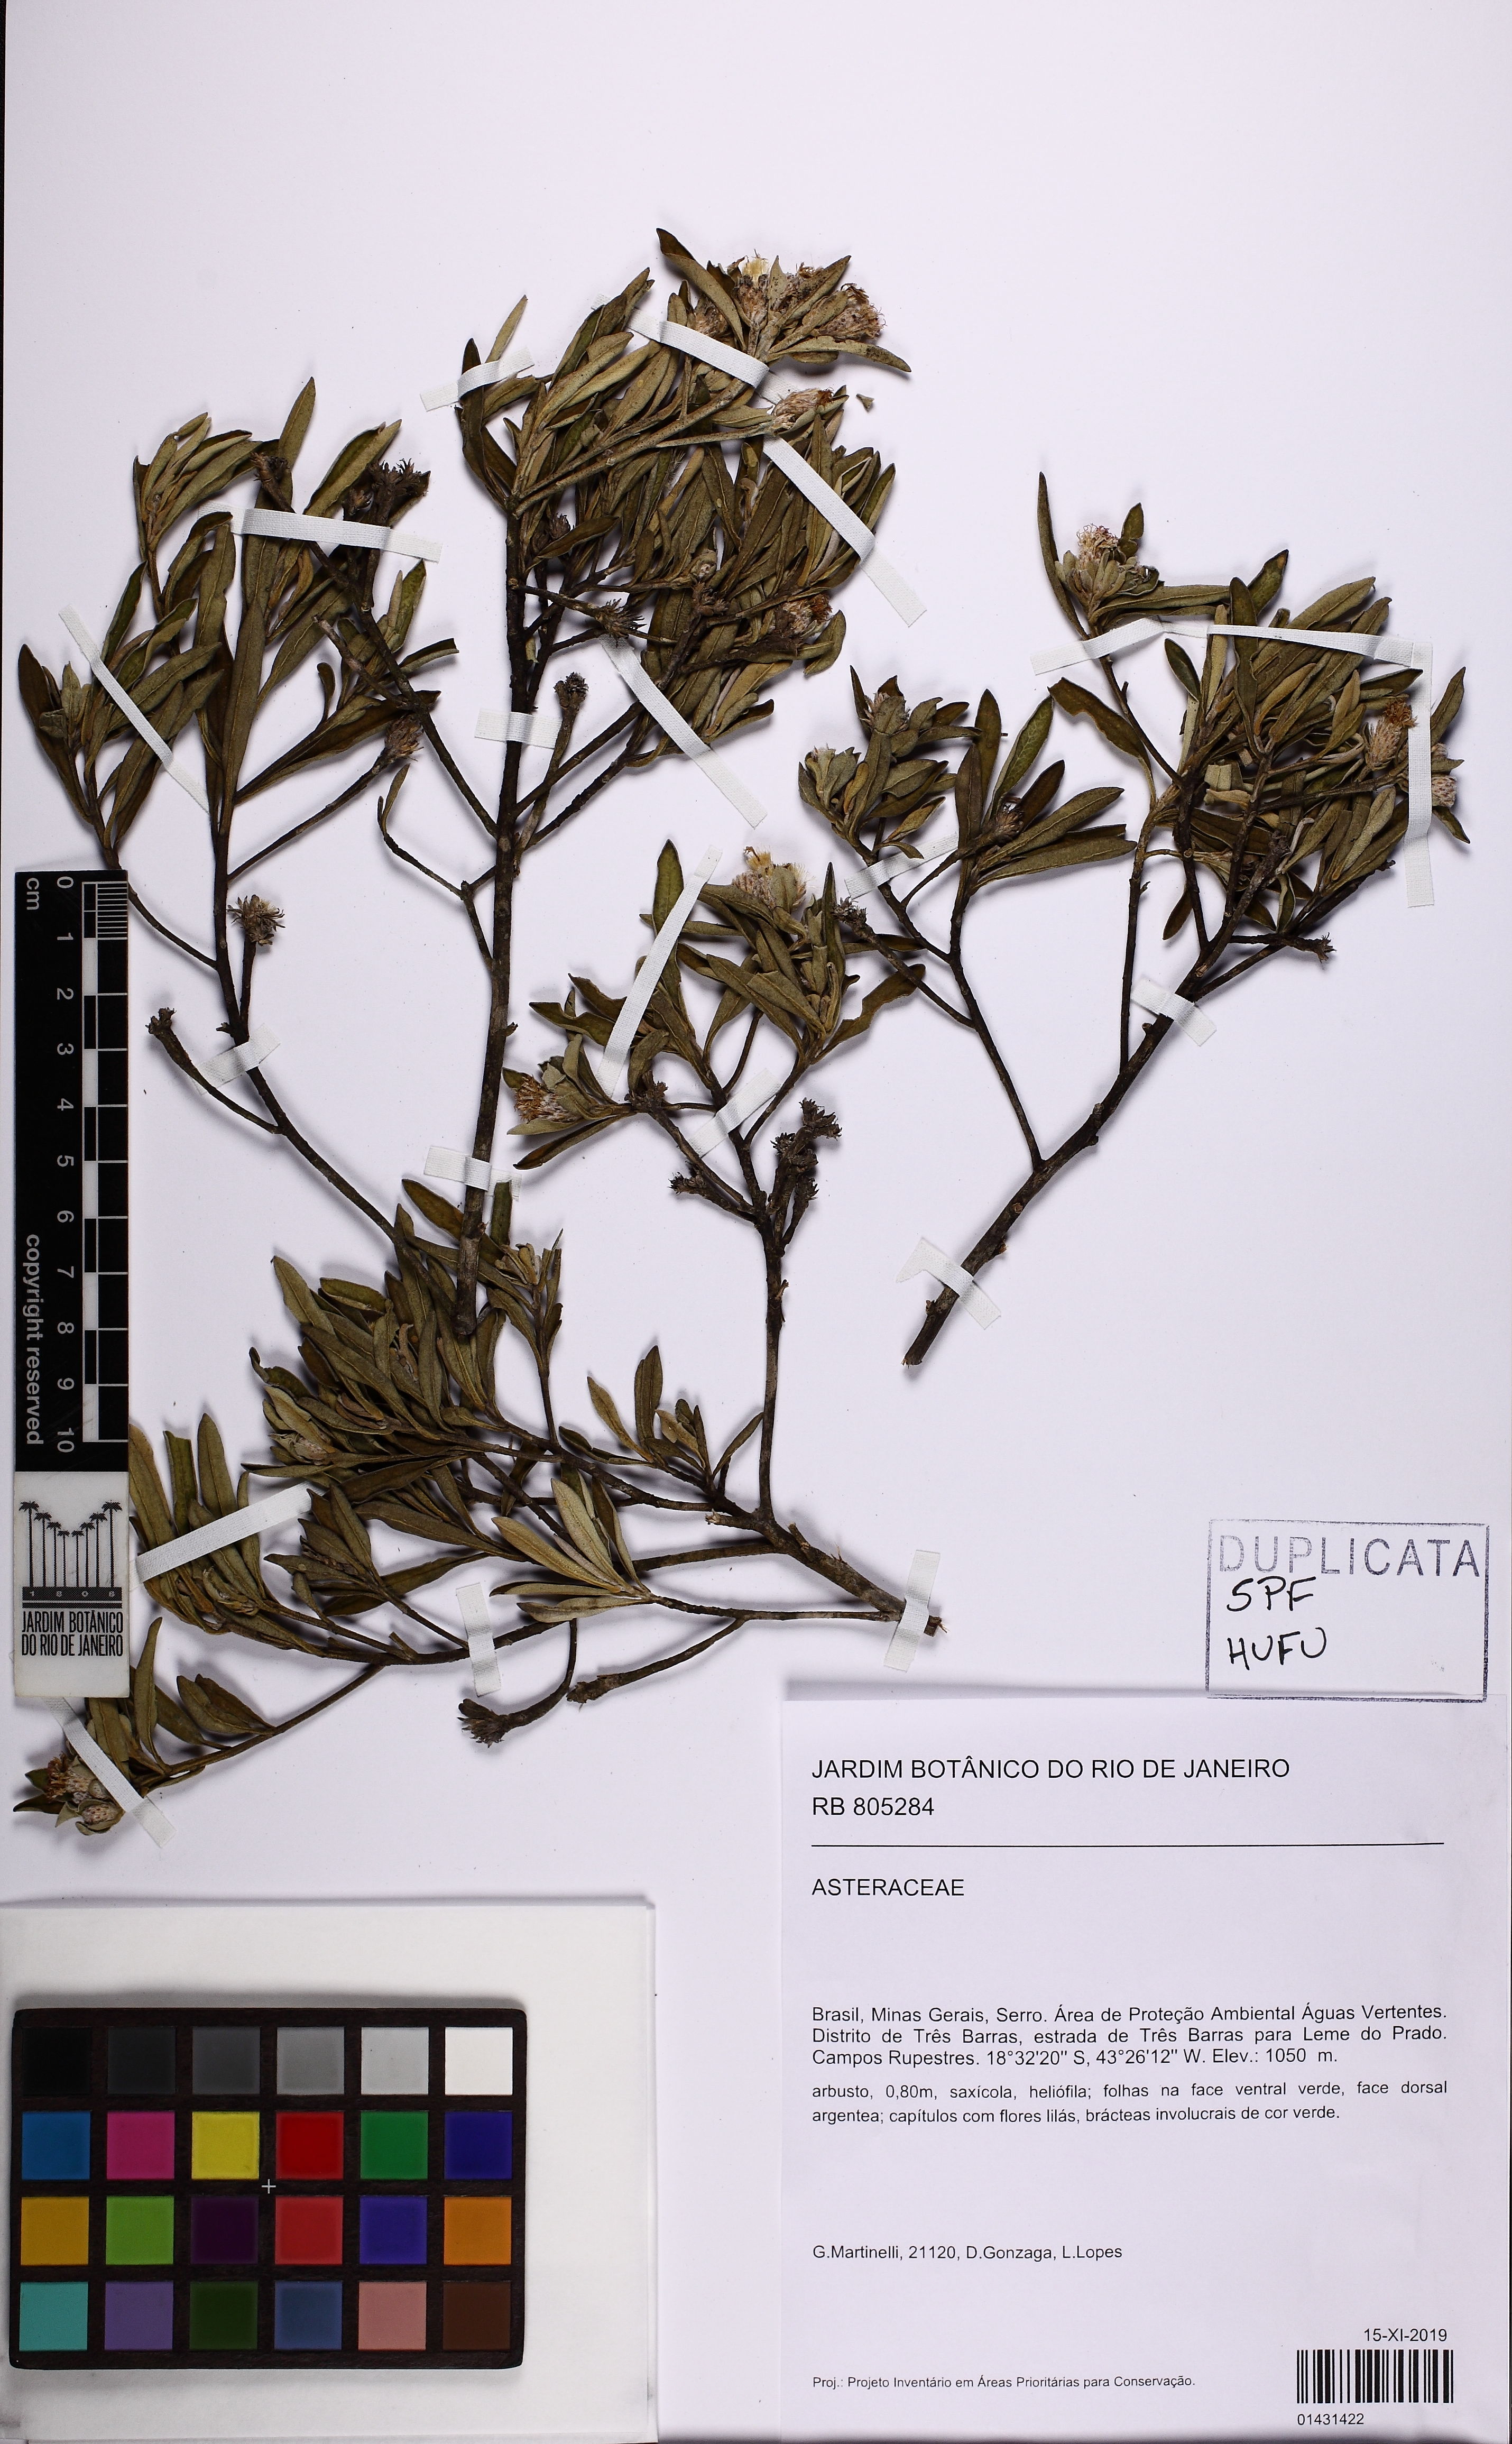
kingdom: Plantae
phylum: Tracheophyta
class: Magnoliopsida
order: Asterales
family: Asteraceae
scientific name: Asteraceae
